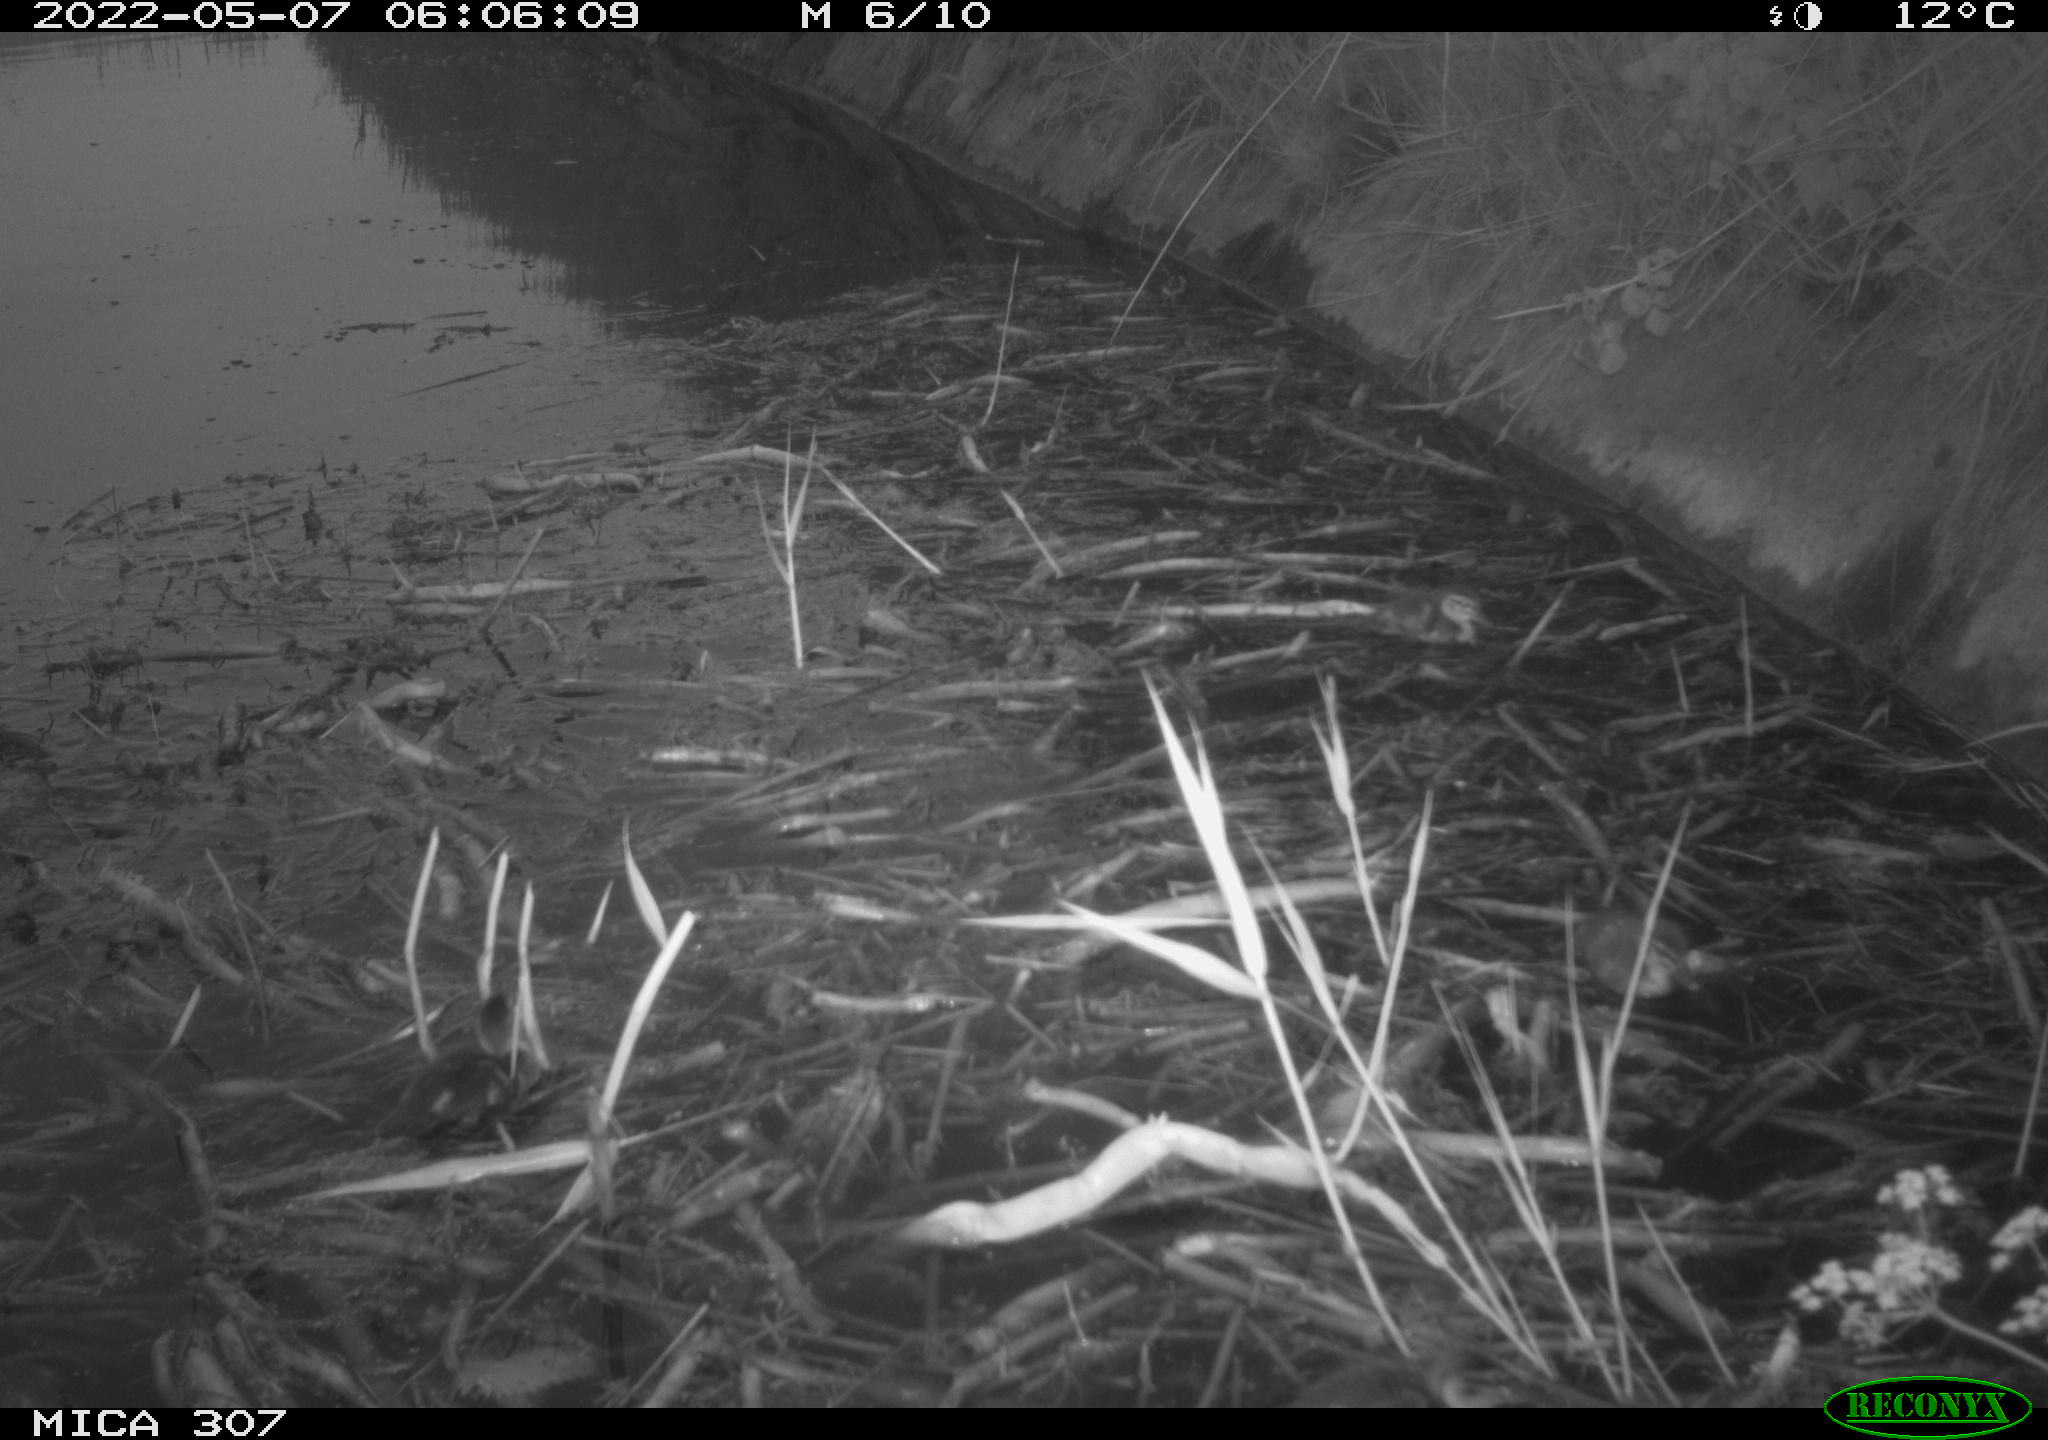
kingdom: Animalia
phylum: Chordata
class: Aves
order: Anseriformes
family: Anatidae
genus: Anas
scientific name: Anas platyrhynchos
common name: Mallard
